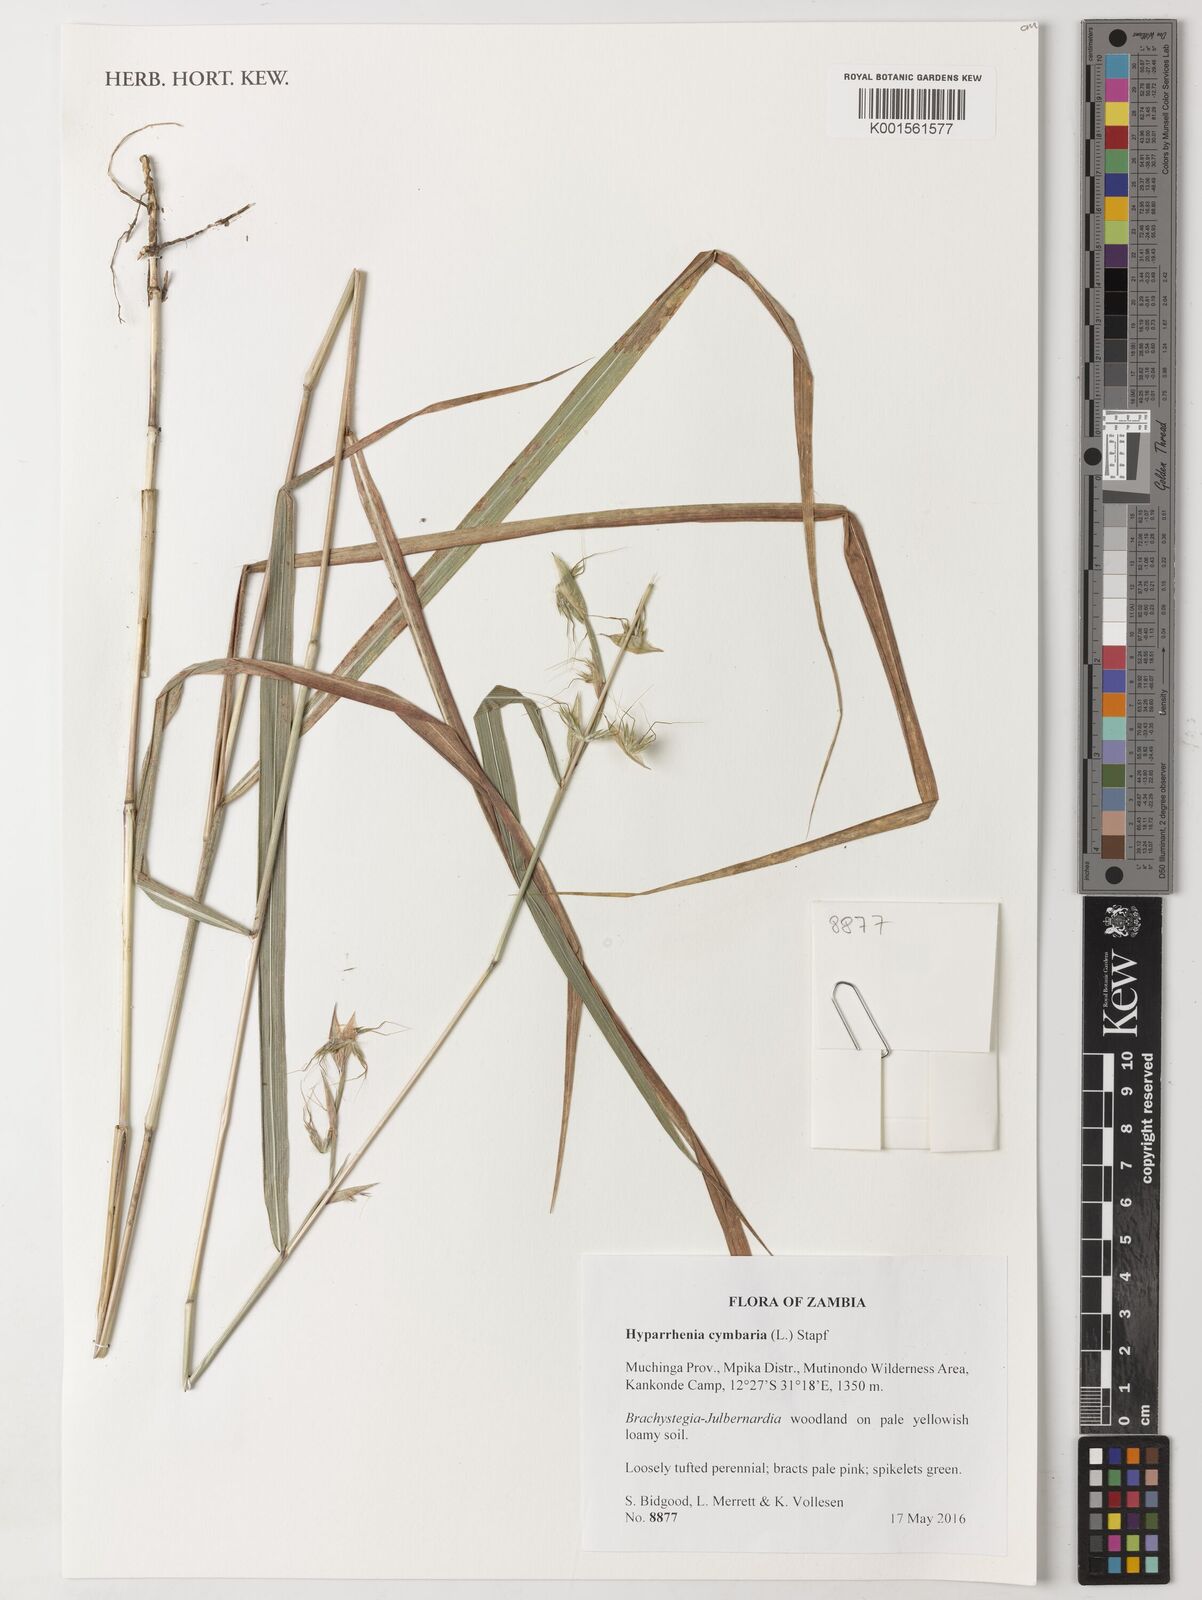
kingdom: Plantae
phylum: Tracheophyta
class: Liliopsida
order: Poales
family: Poaceae
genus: Hyparrhenia
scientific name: Hyparrhenia cymbaria
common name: Boat thatching grass
